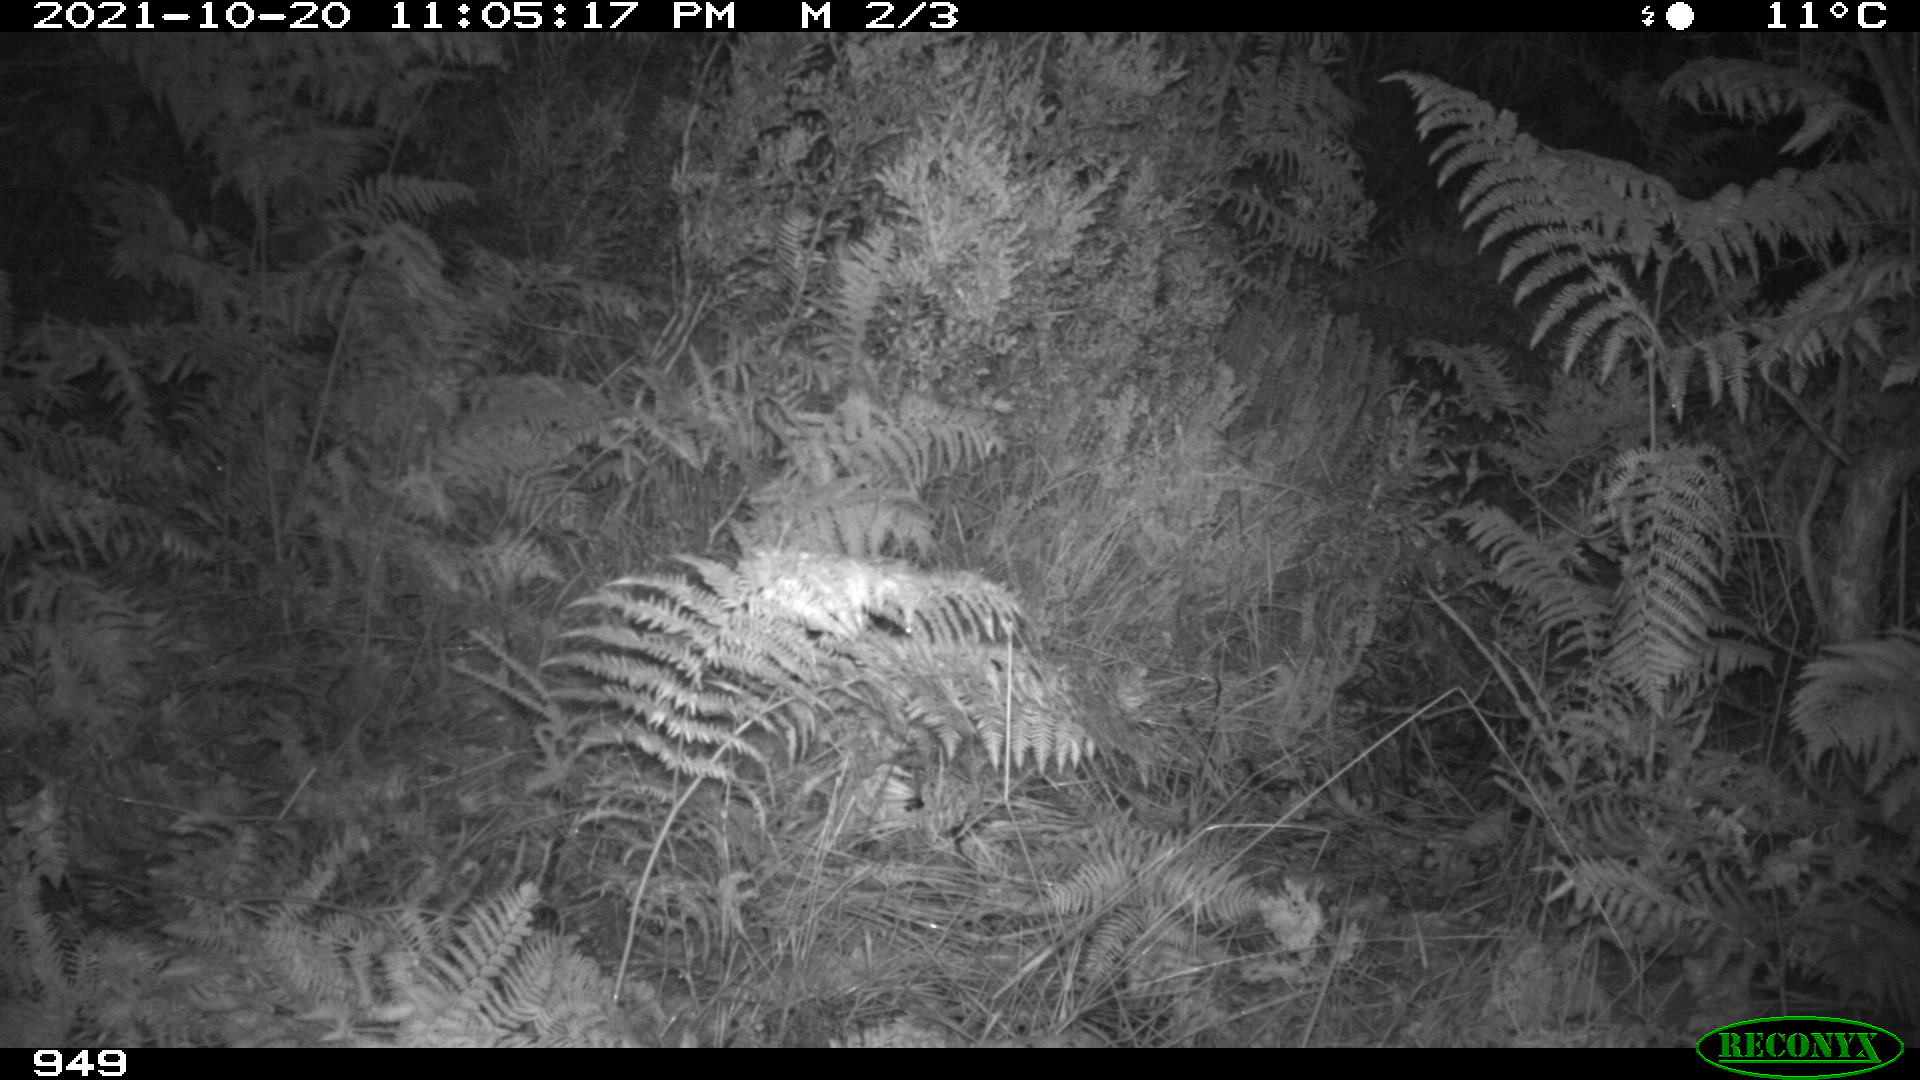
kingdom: Animalia
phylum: Chordata
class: Mammalia
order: Perissodactyla
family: Equidae
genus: Equus
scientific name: Equus caballus
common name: Horse
